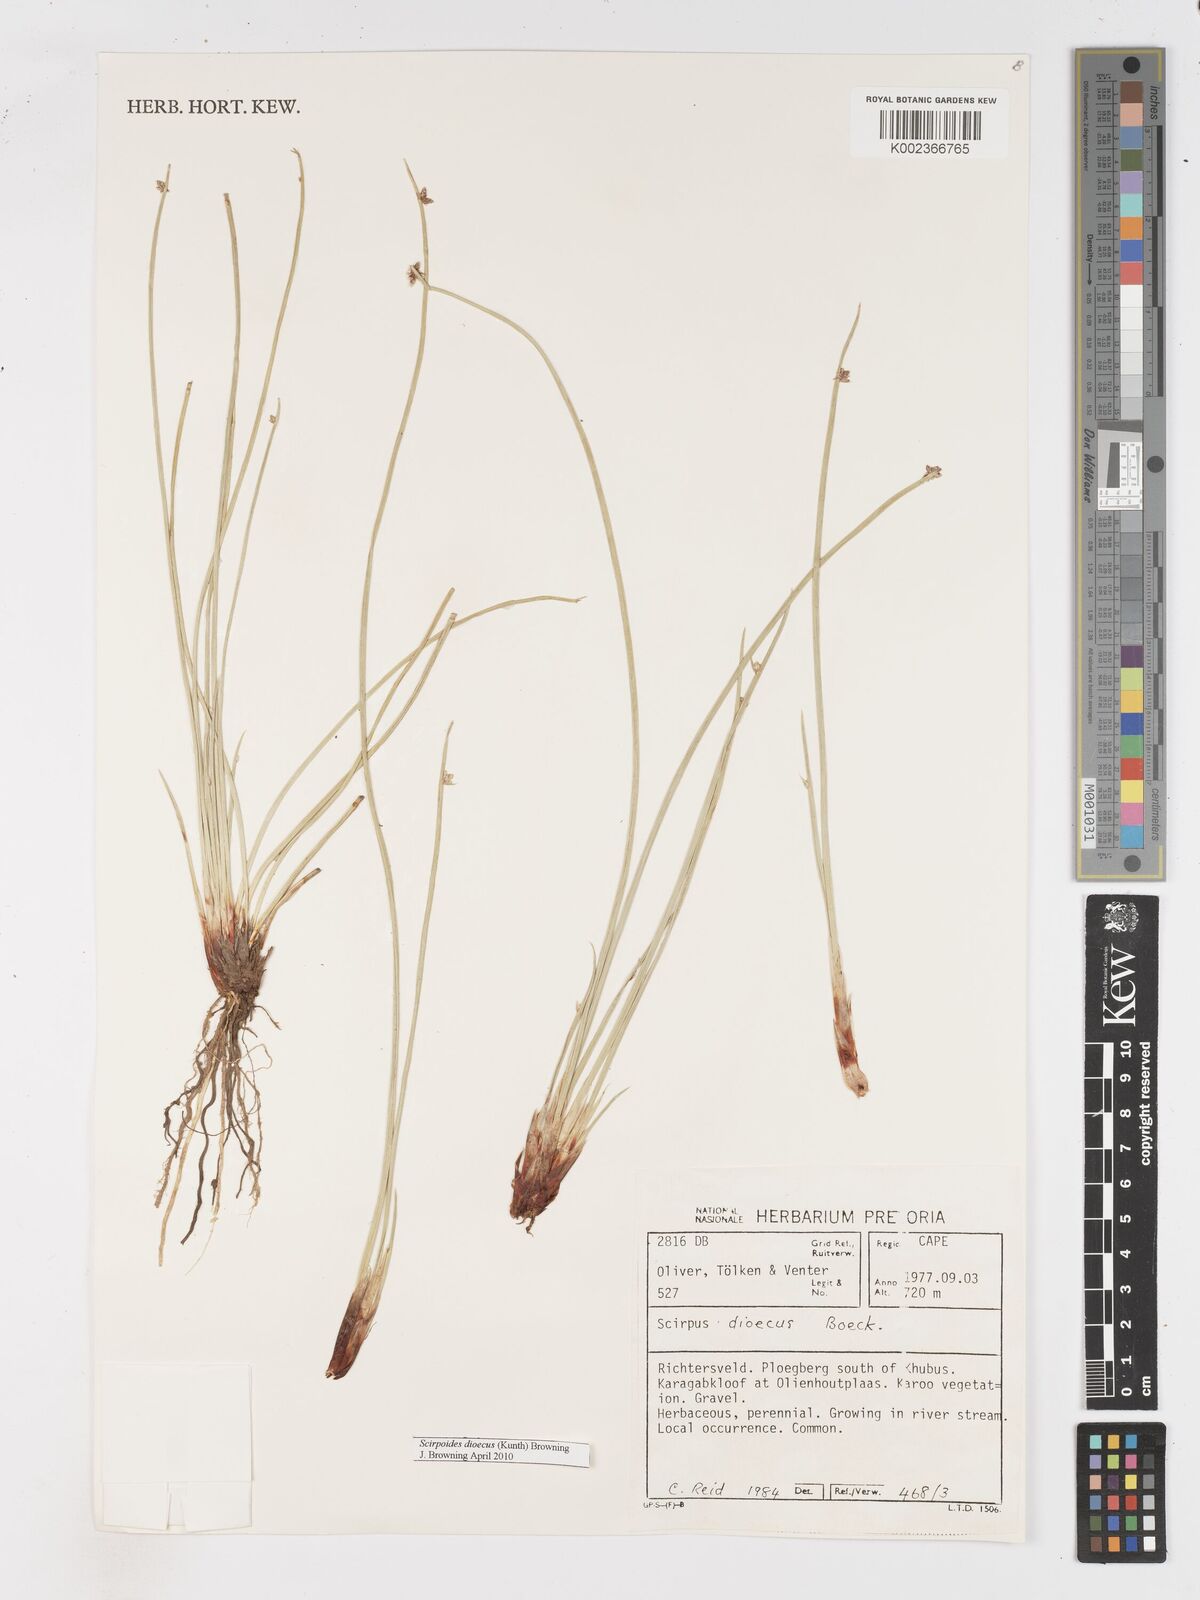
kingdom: Plantae
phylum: Tracheophyta
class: Liliopsida
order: Poales
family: Cyperaceae
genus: Afroscirpoides
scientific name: Afroscirpoides dioeca
